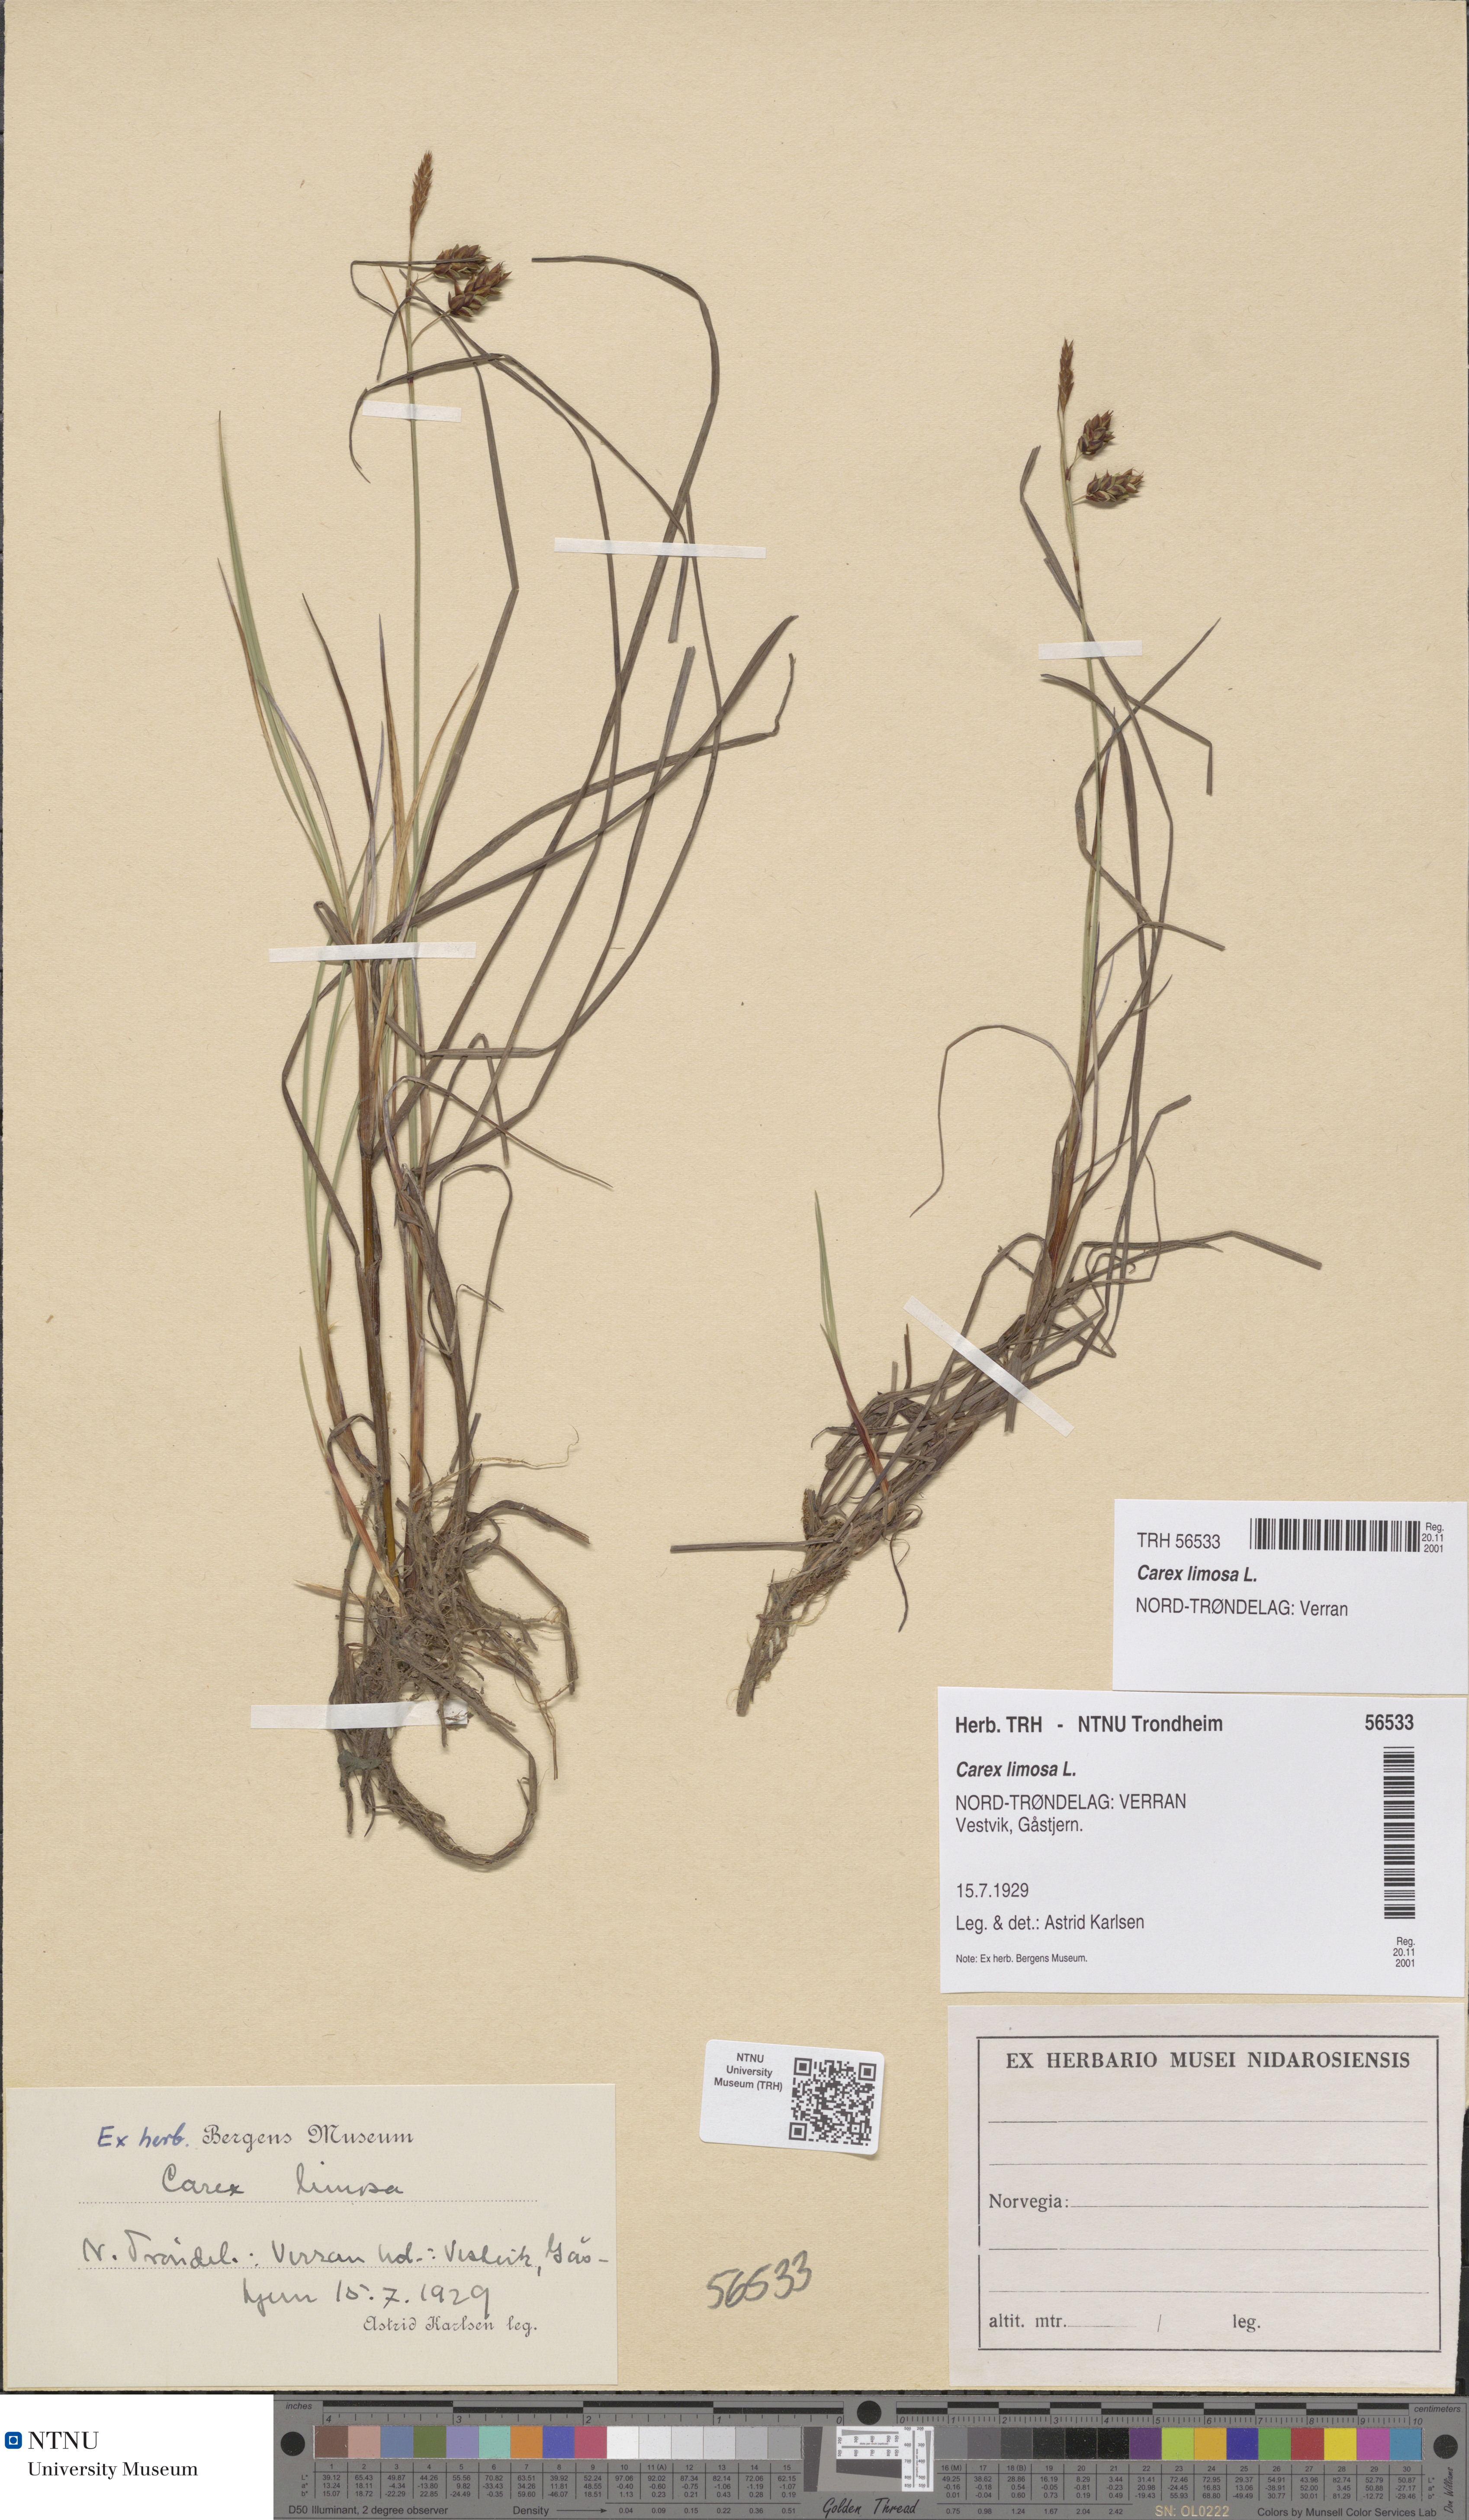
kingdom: Plantae
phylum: Tracheophyta
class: Liliopsida
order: Poales
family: Cyperaceae
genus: Carex
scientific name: Carex limosa
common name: Bog sedge
